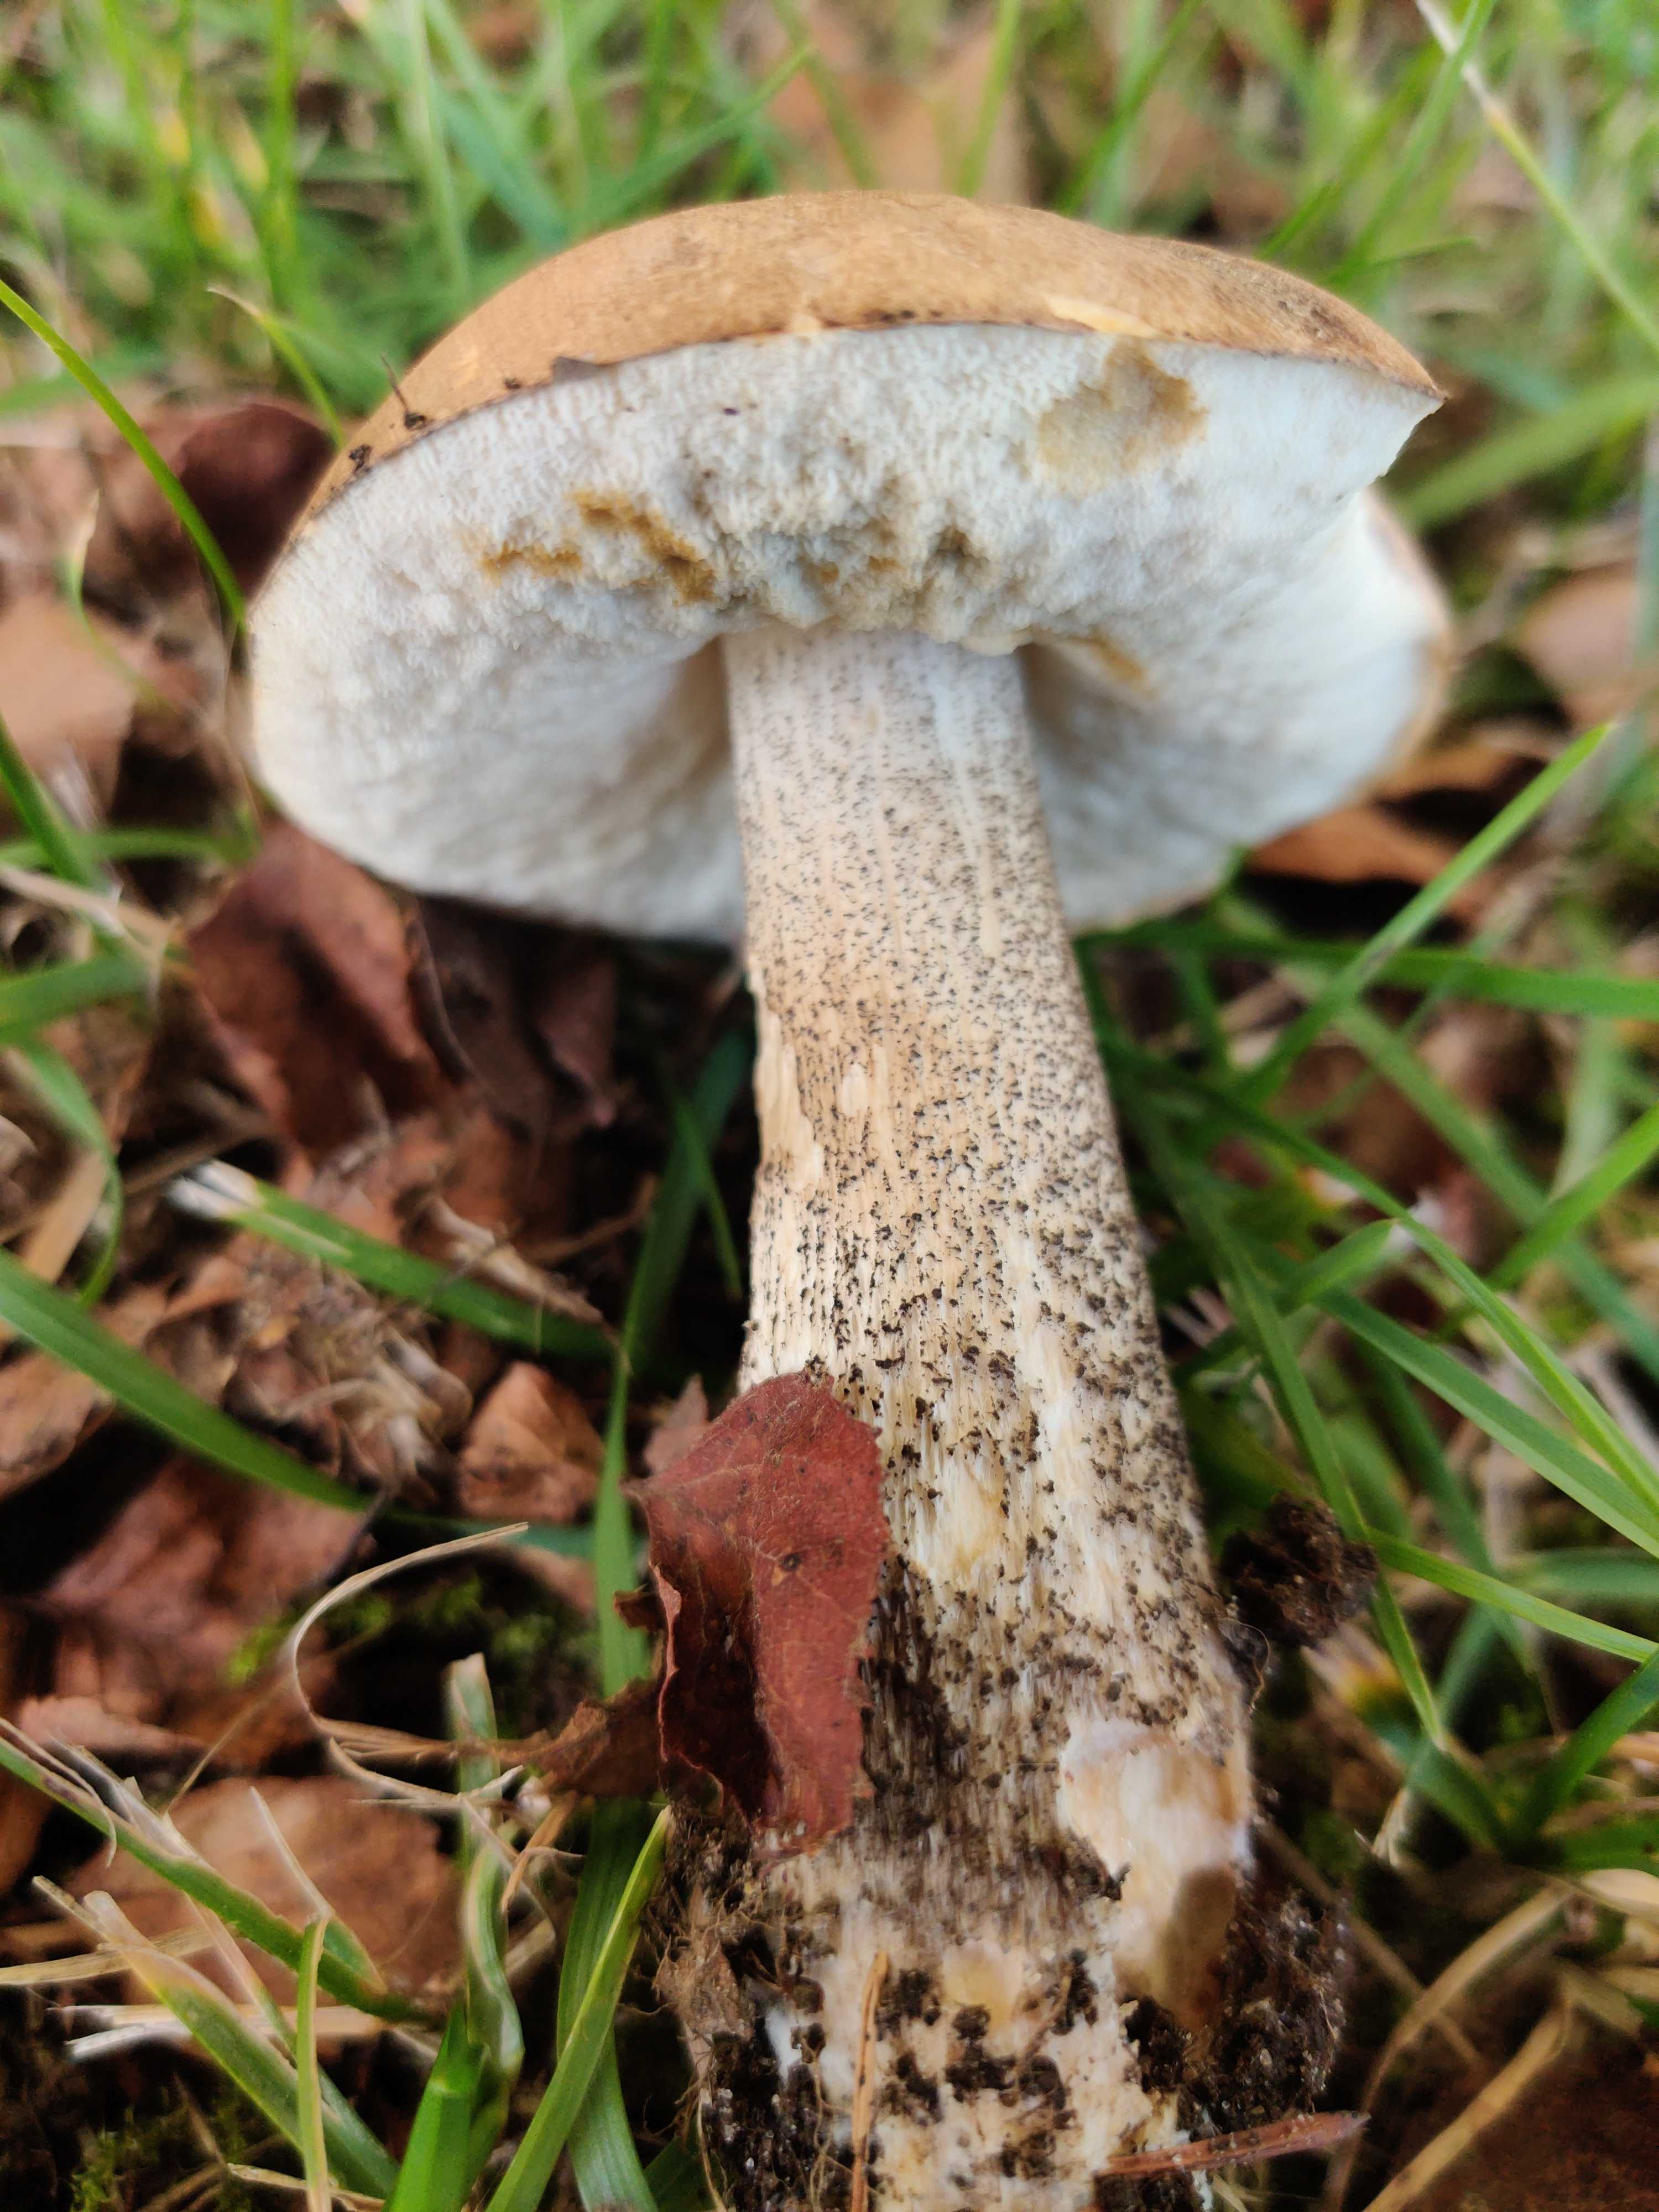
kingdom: Fungi
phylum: Basidiomycota
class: Agaricomycetes
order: Boletales
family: Boletaceae
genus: Leccinum
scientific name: Leccinum
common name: skælrørhat
